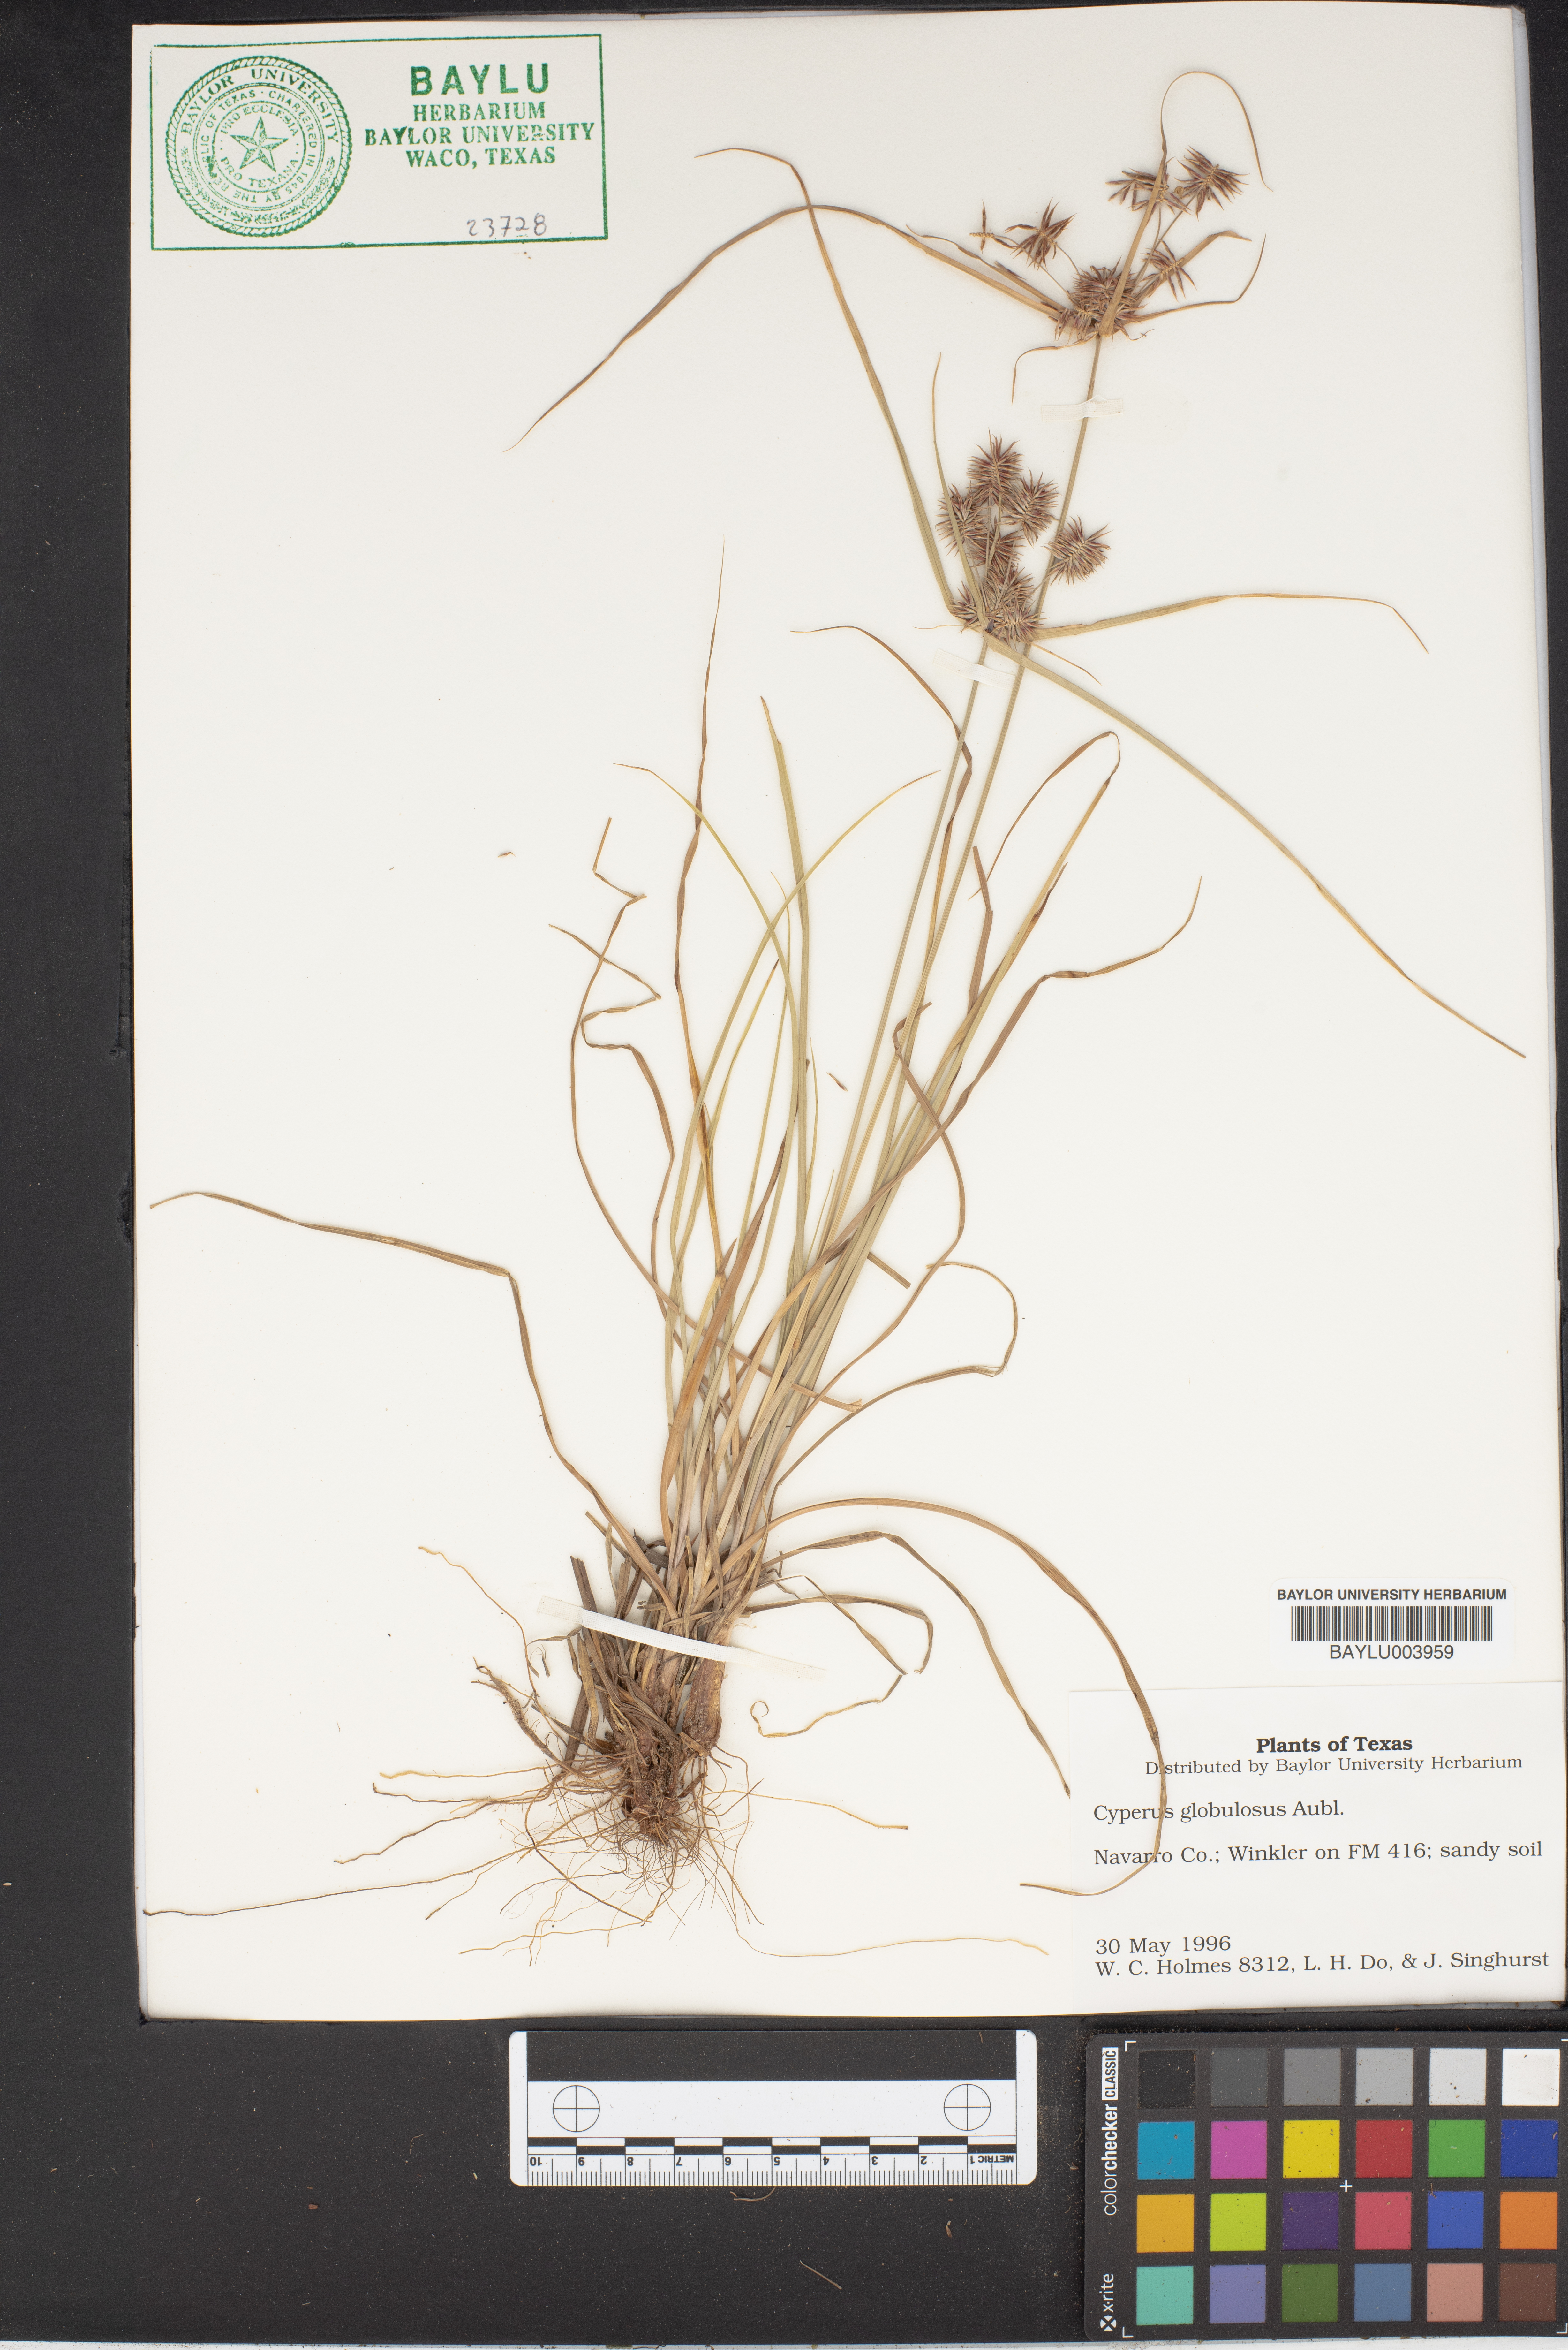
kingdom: Plantae
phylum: Tracheophyta
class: Liliopsida
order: Poales
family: Cyperaceae
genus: Cyperus
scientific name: Cyperus luzulae
